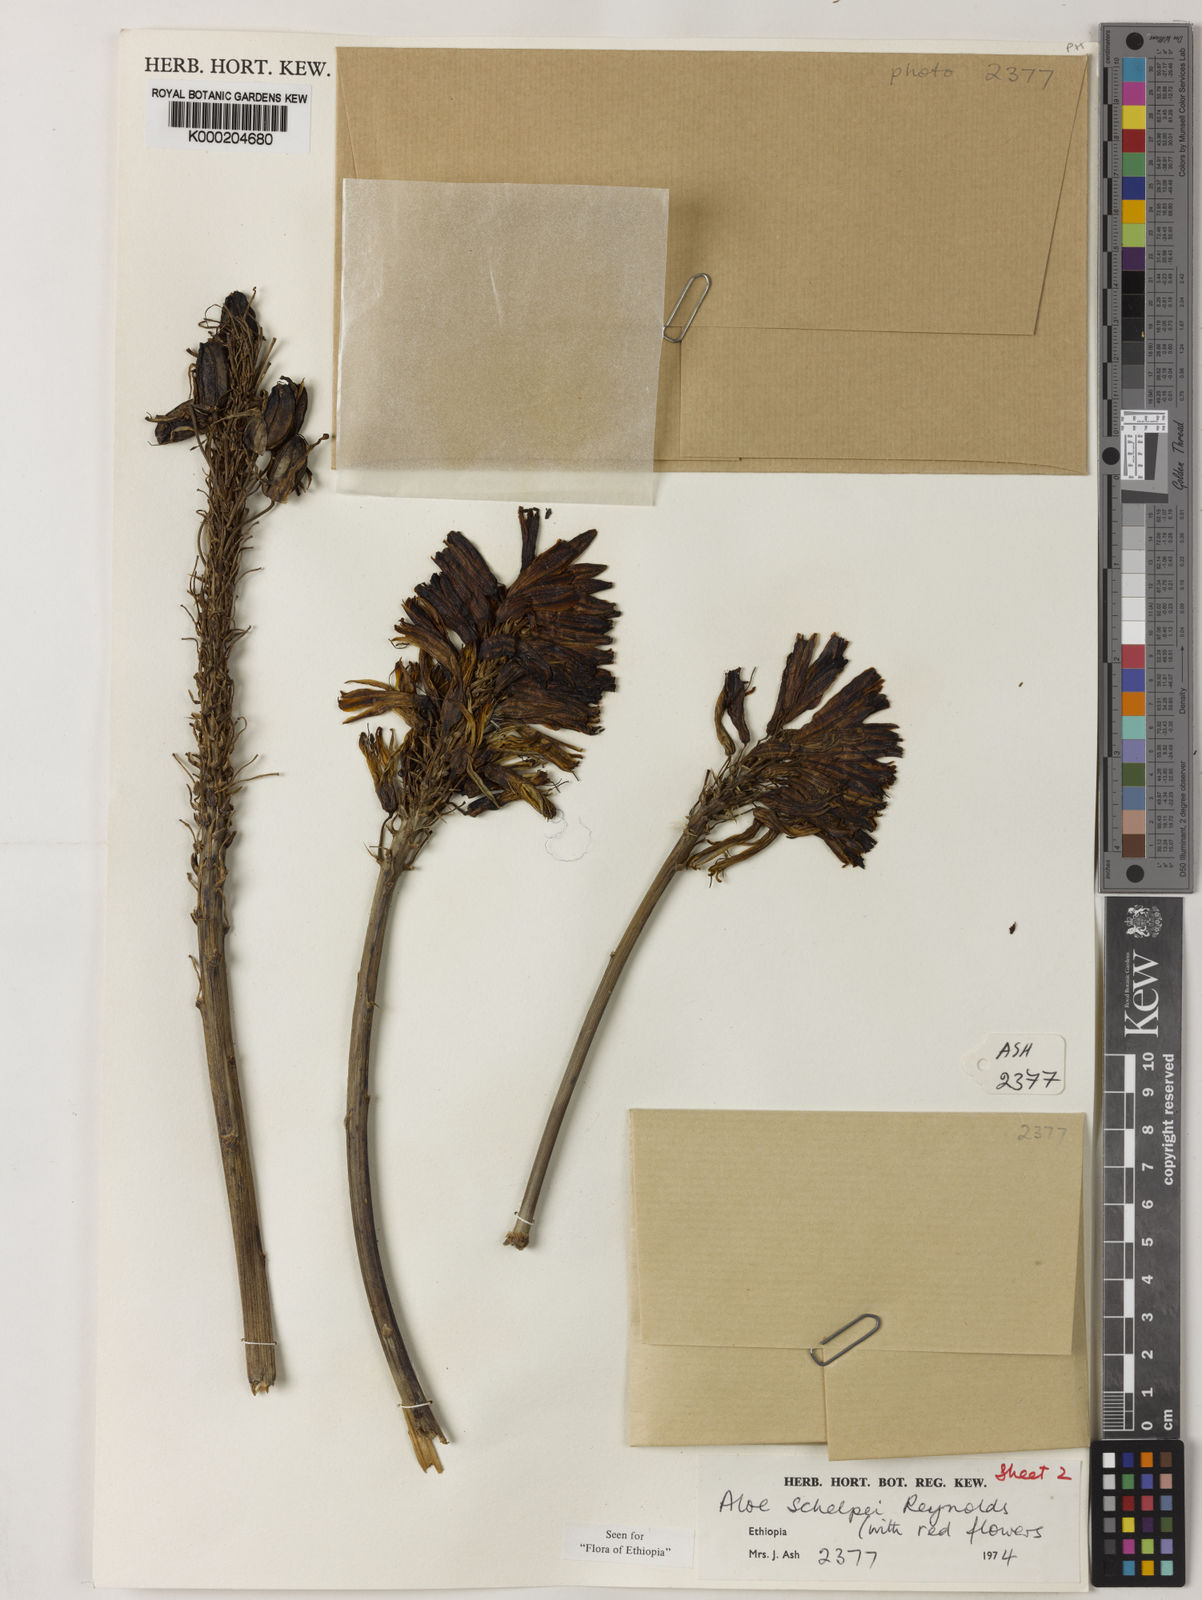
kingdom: Plantae
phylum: Tracheophyta
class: Liliopsida
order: Asparagales
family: Asphodelaceae
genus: Aloe
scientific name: Aloe schelpei
